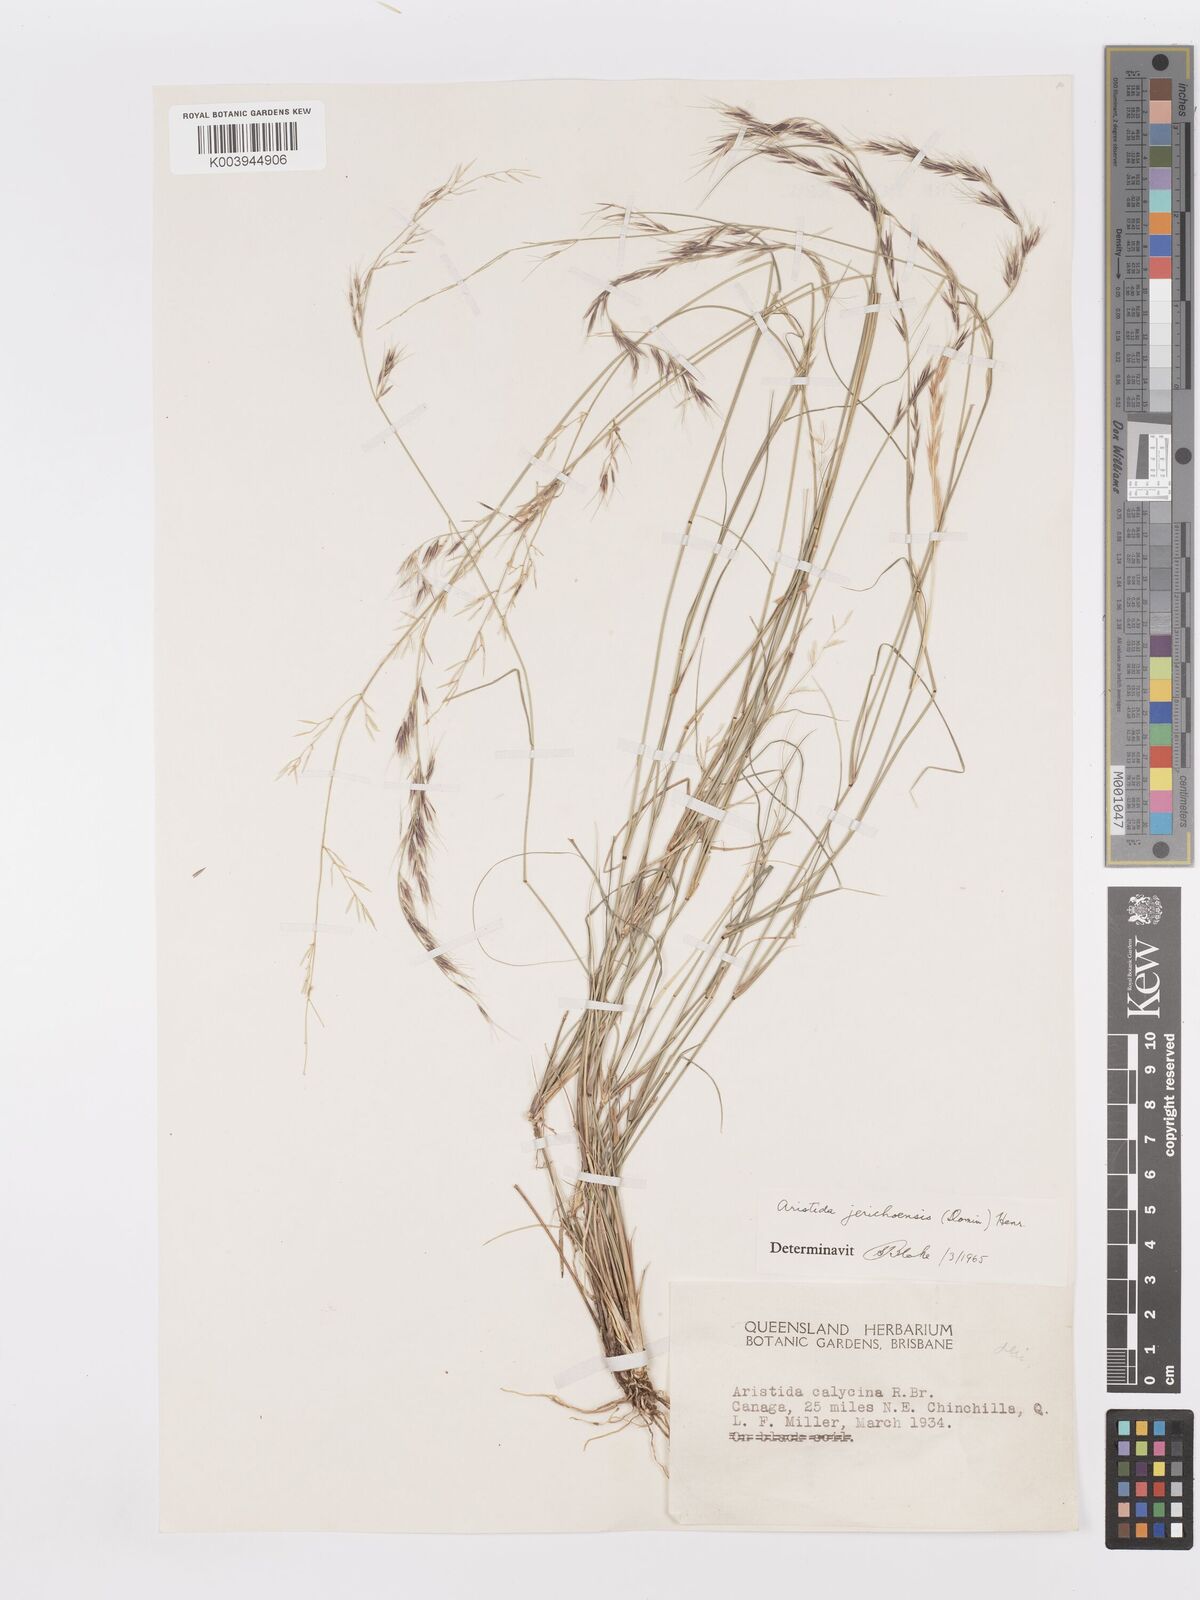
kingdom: Plantae
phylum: Tracheophyta
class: Liliopsida
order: Poales
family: Poaceae
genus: Aristida
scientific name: Aristida jerichoensis
